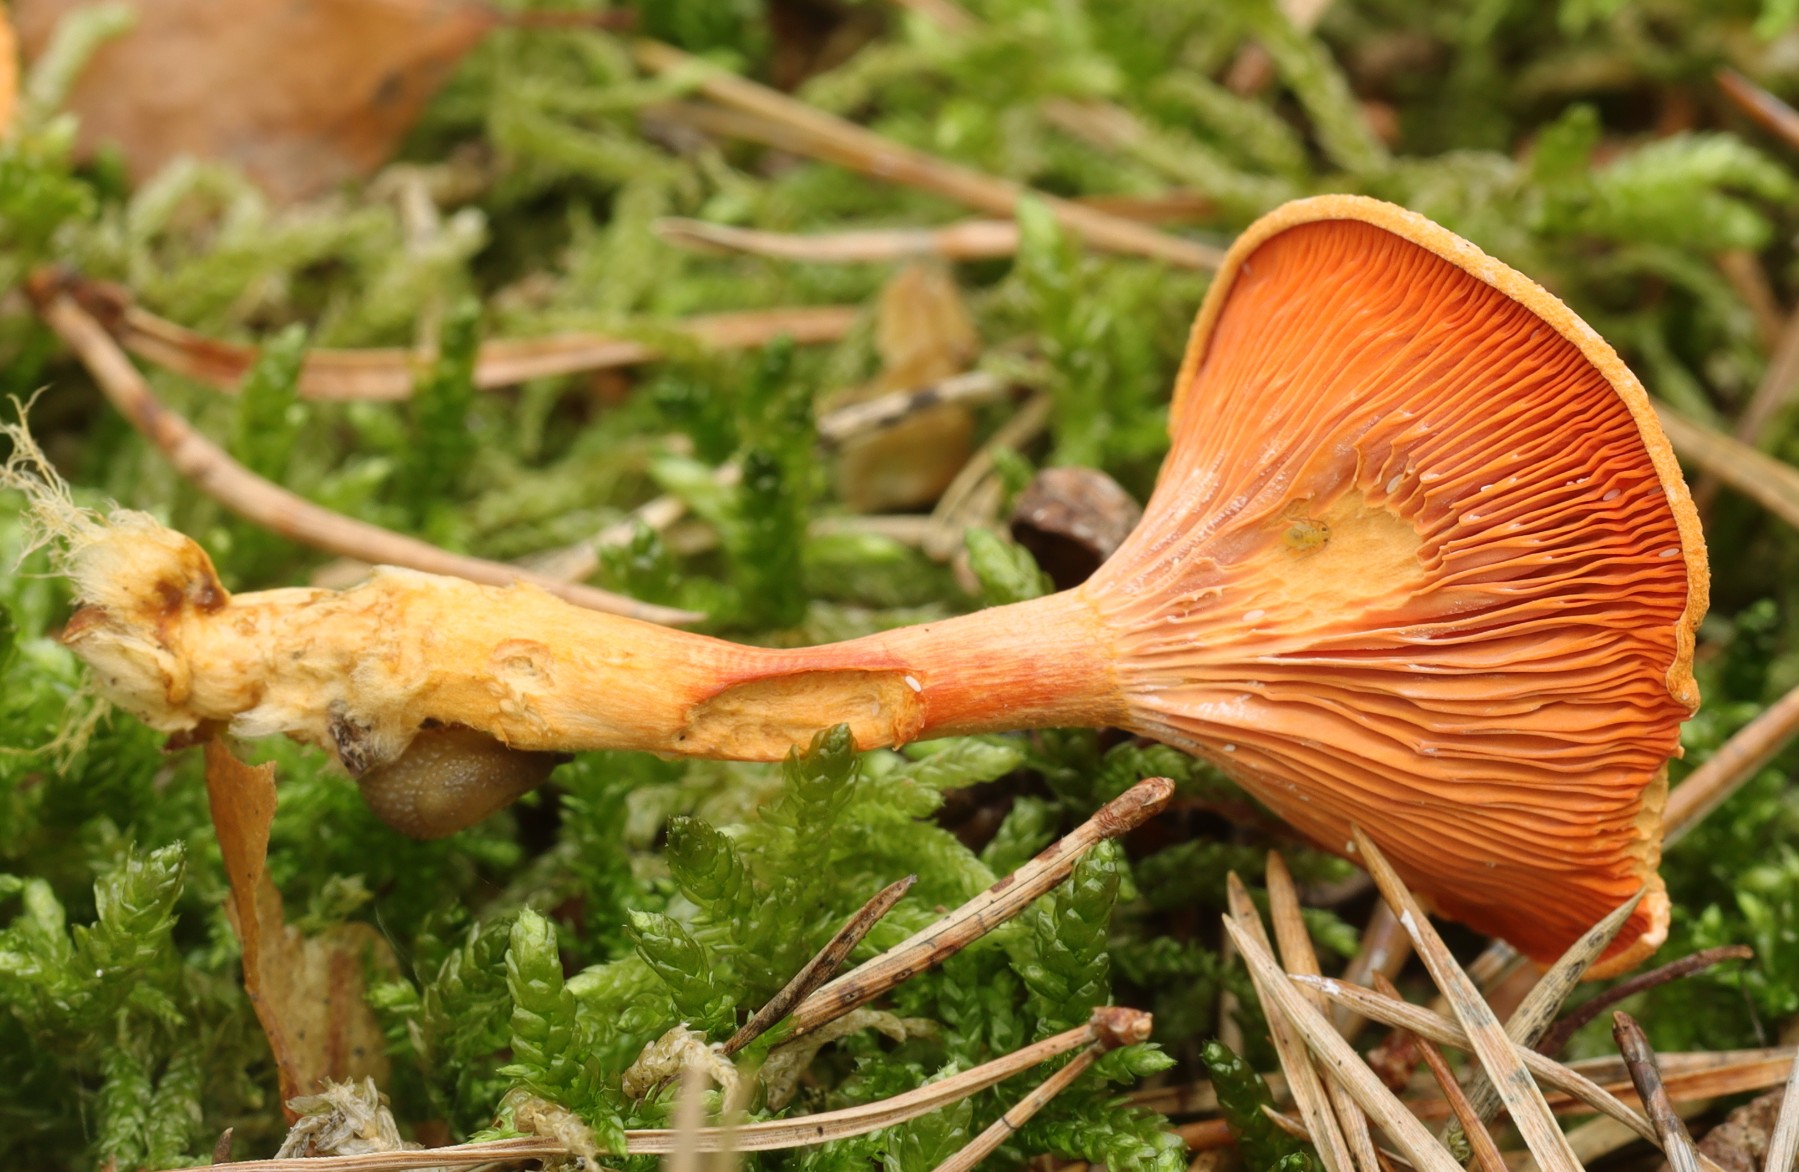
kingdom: Fungi
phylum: Basidiomycota
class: Agaricomycetes
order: Boletales
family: Hygrophoropsidaceae
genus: Hygrophoropsis
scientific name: Hygrophoropsis aurantiaca
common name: almindelig orangekantarel
